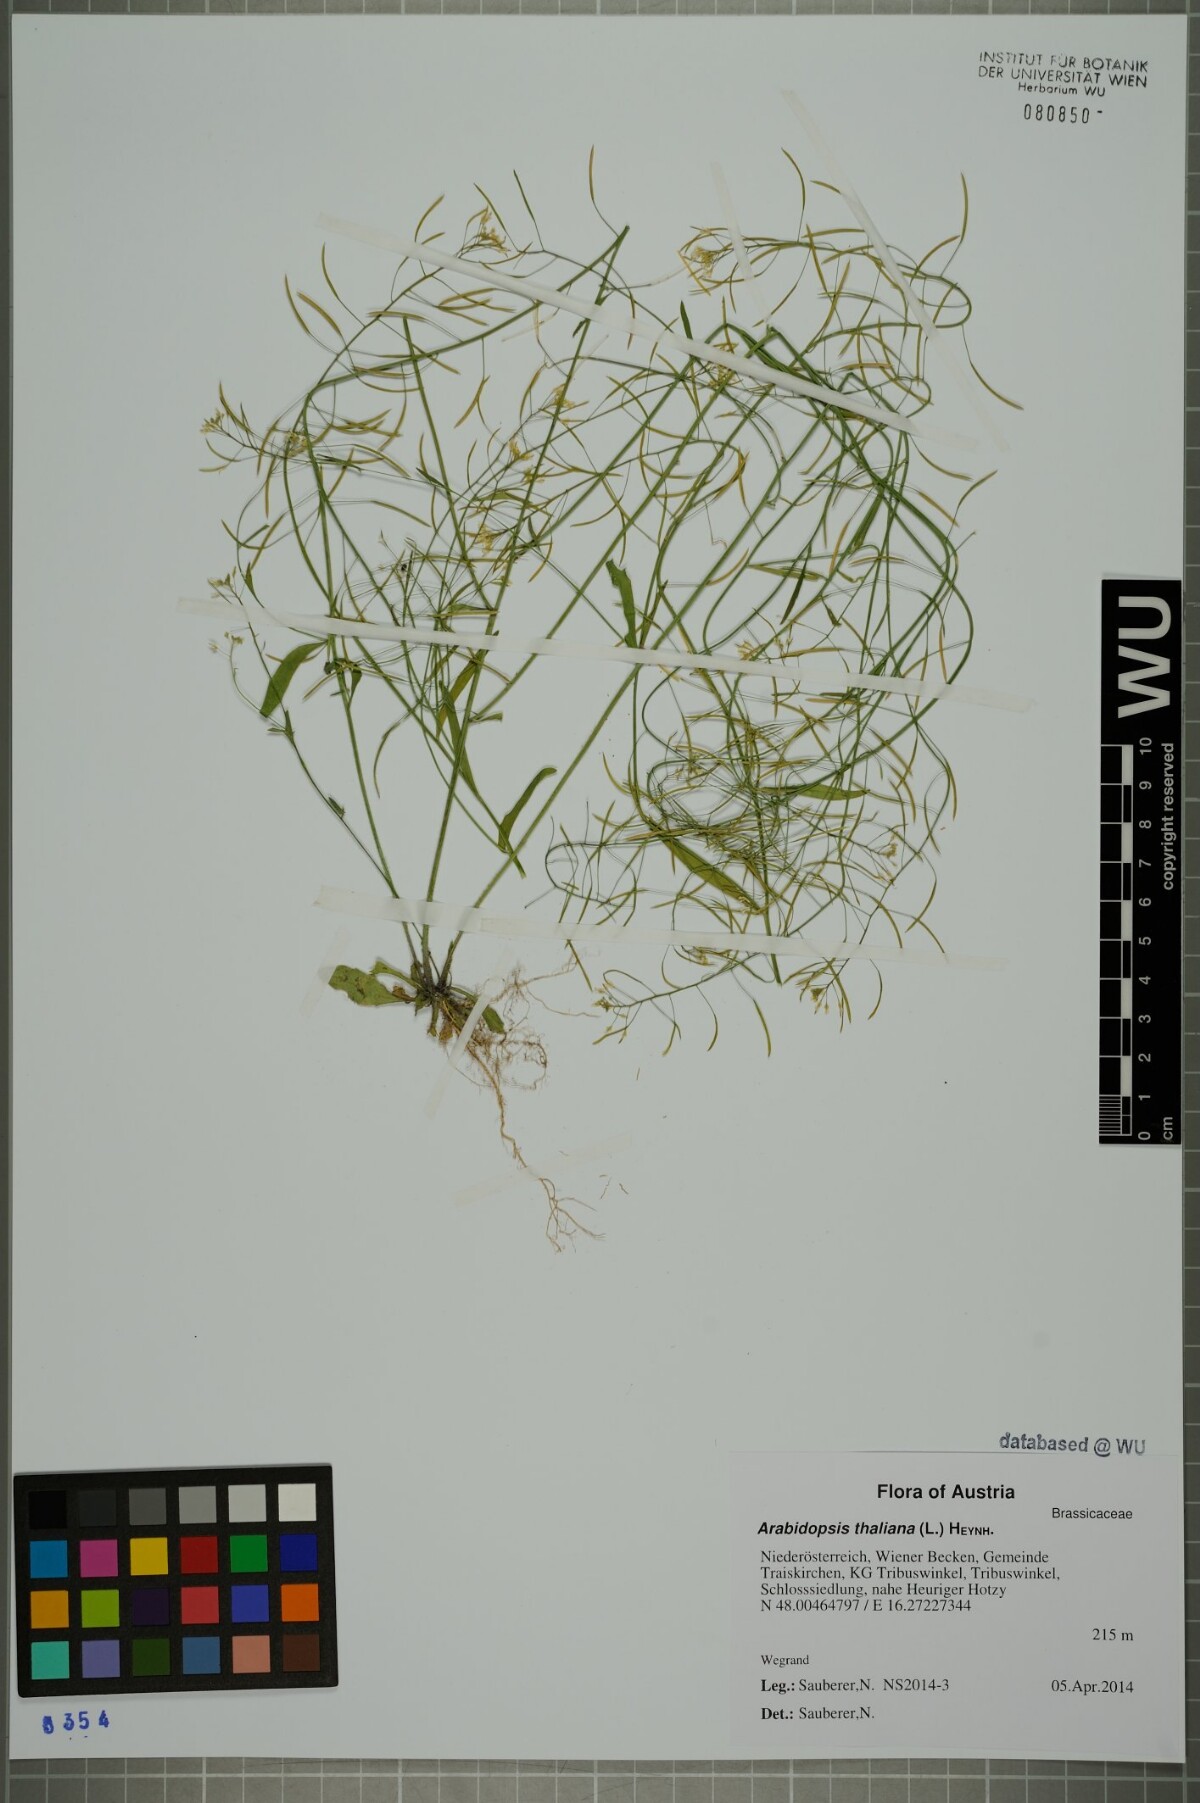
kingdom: Plantae
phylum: Tracheophyta
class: Magnoliopsida
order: Brassicales
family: Brassicaceae
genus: Arabidopsis
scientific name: Arabidopsis thaliana
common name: Thale cress
